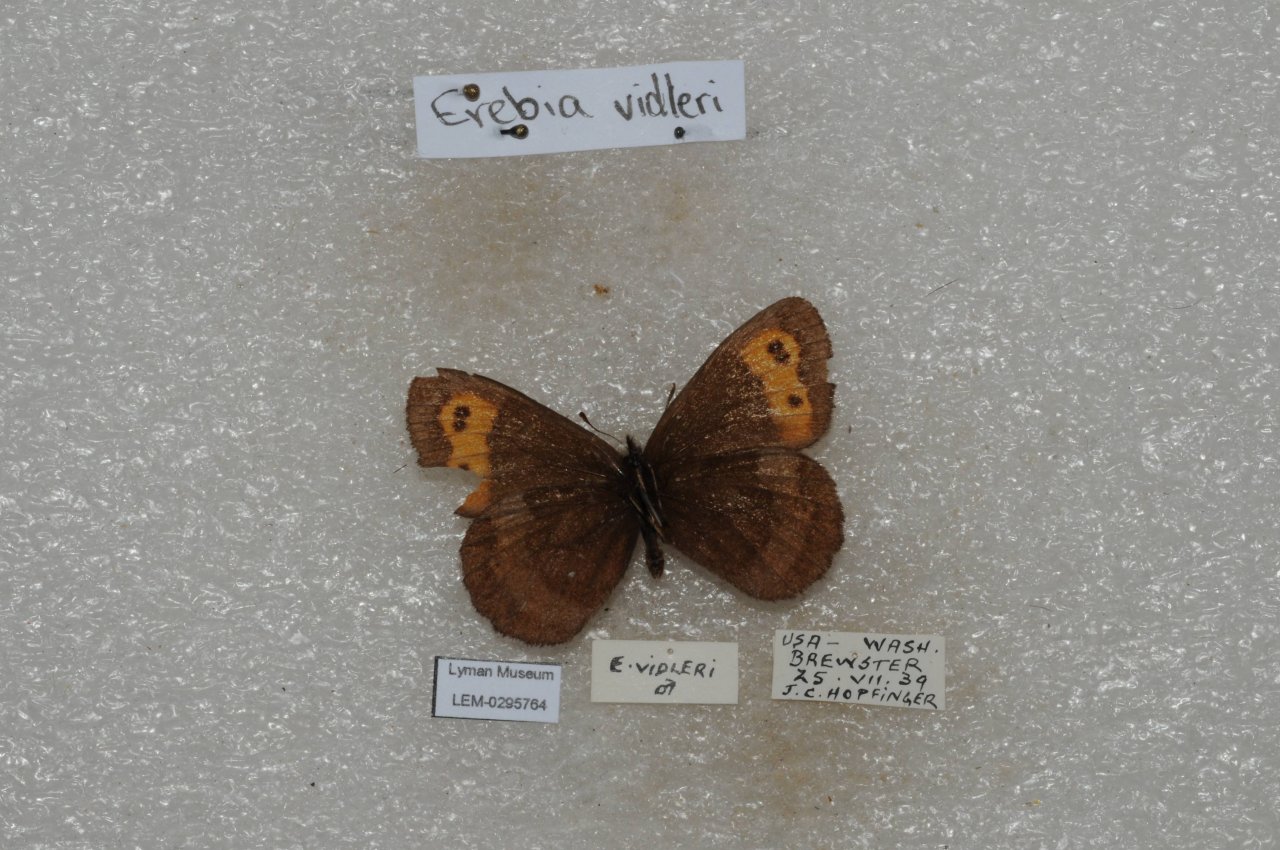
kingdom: Animalia
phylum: Arthropoda
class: Insecta
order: Lepidoptera
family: Nymphalidae
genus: Erebia
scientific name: Erebia vidleri
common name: Vidler's Alpine
